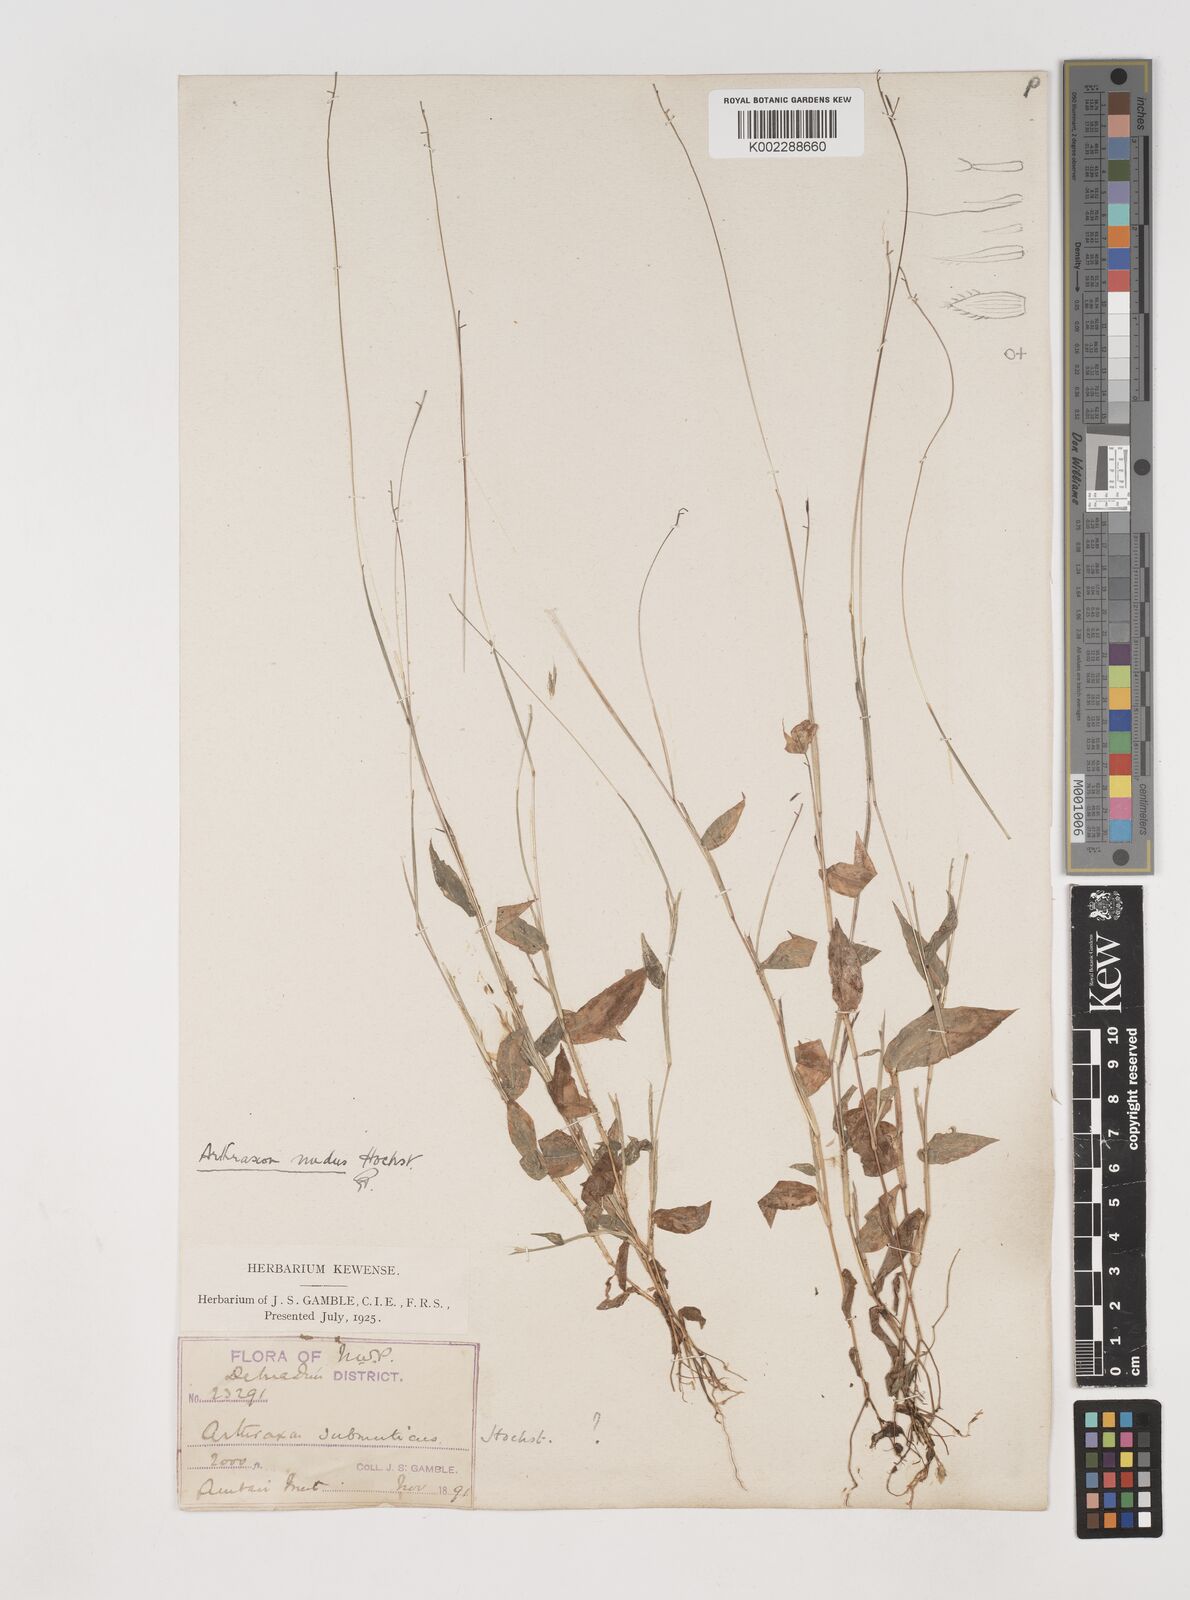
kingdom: Plantae
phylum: Tracheophyta
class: Liliopsida
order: Poales
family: Poaceae
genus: Arthraxon
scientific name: Arthraxon nudus
